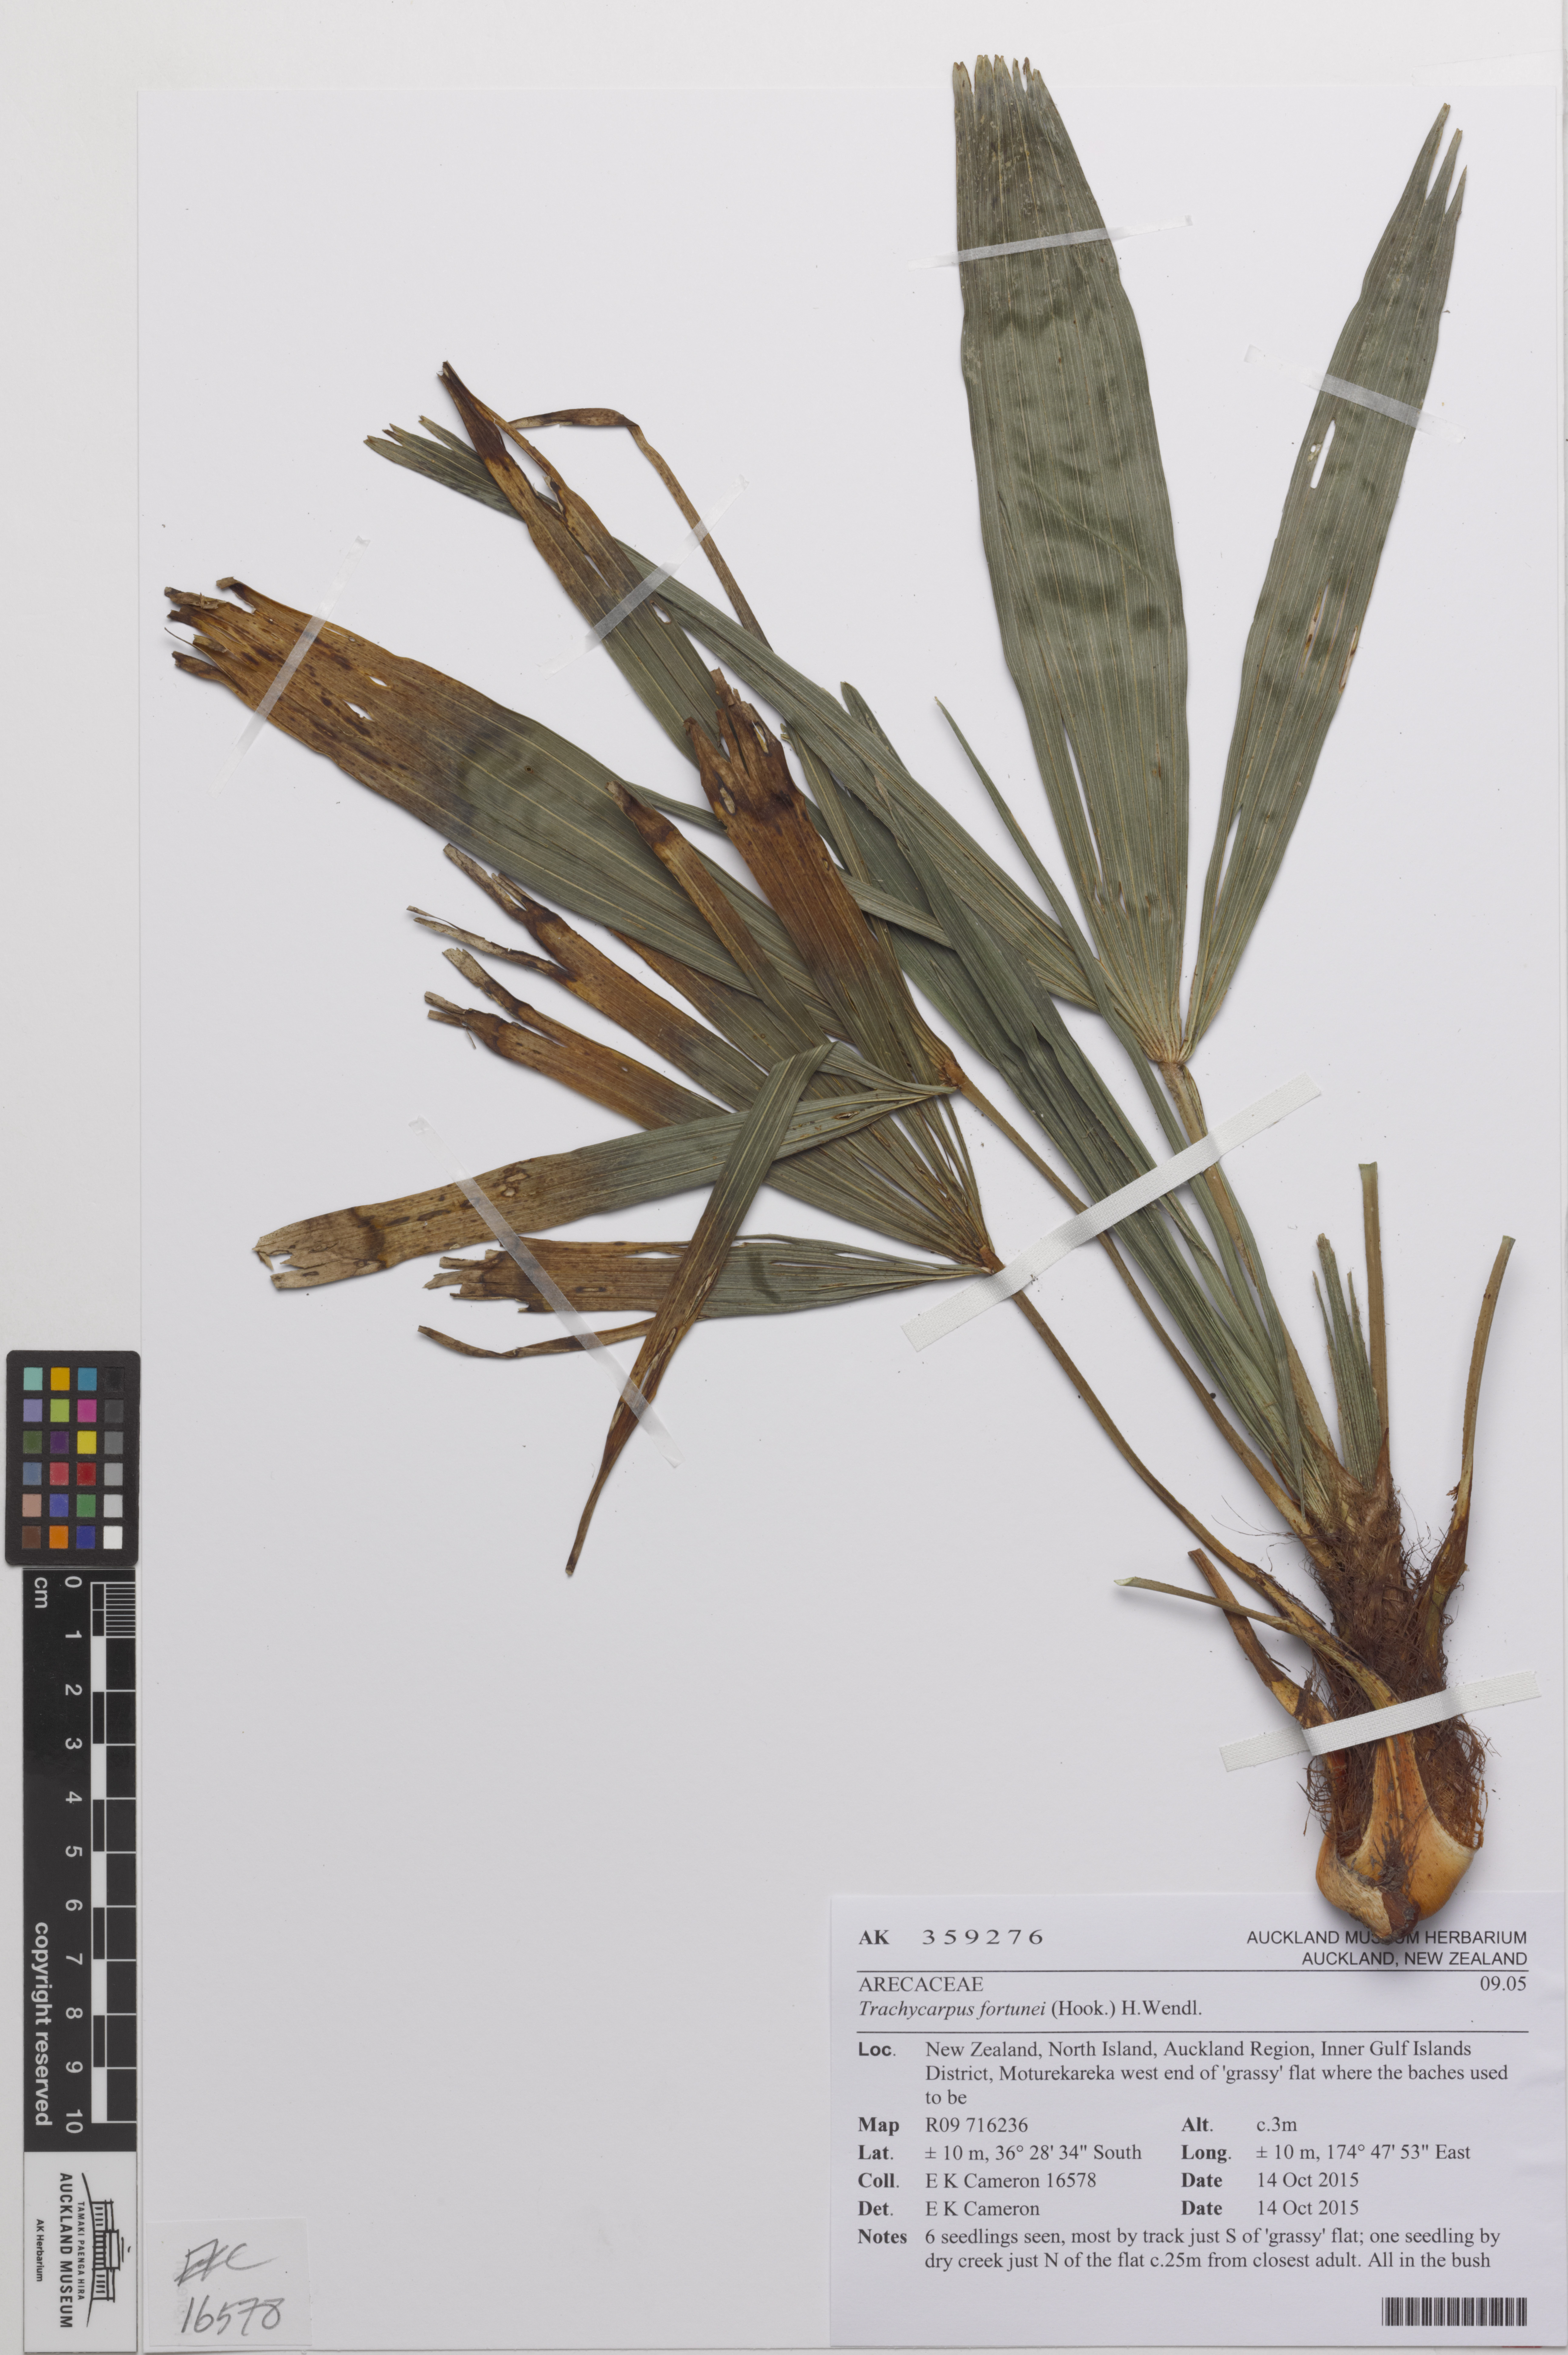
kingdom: Plantae
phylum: Tracheophyta
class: Liliopsida
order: Arecales
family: Arecaceae
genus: Trachycarpus
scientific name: Trachycarpus fortunei
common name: Chusan palm
